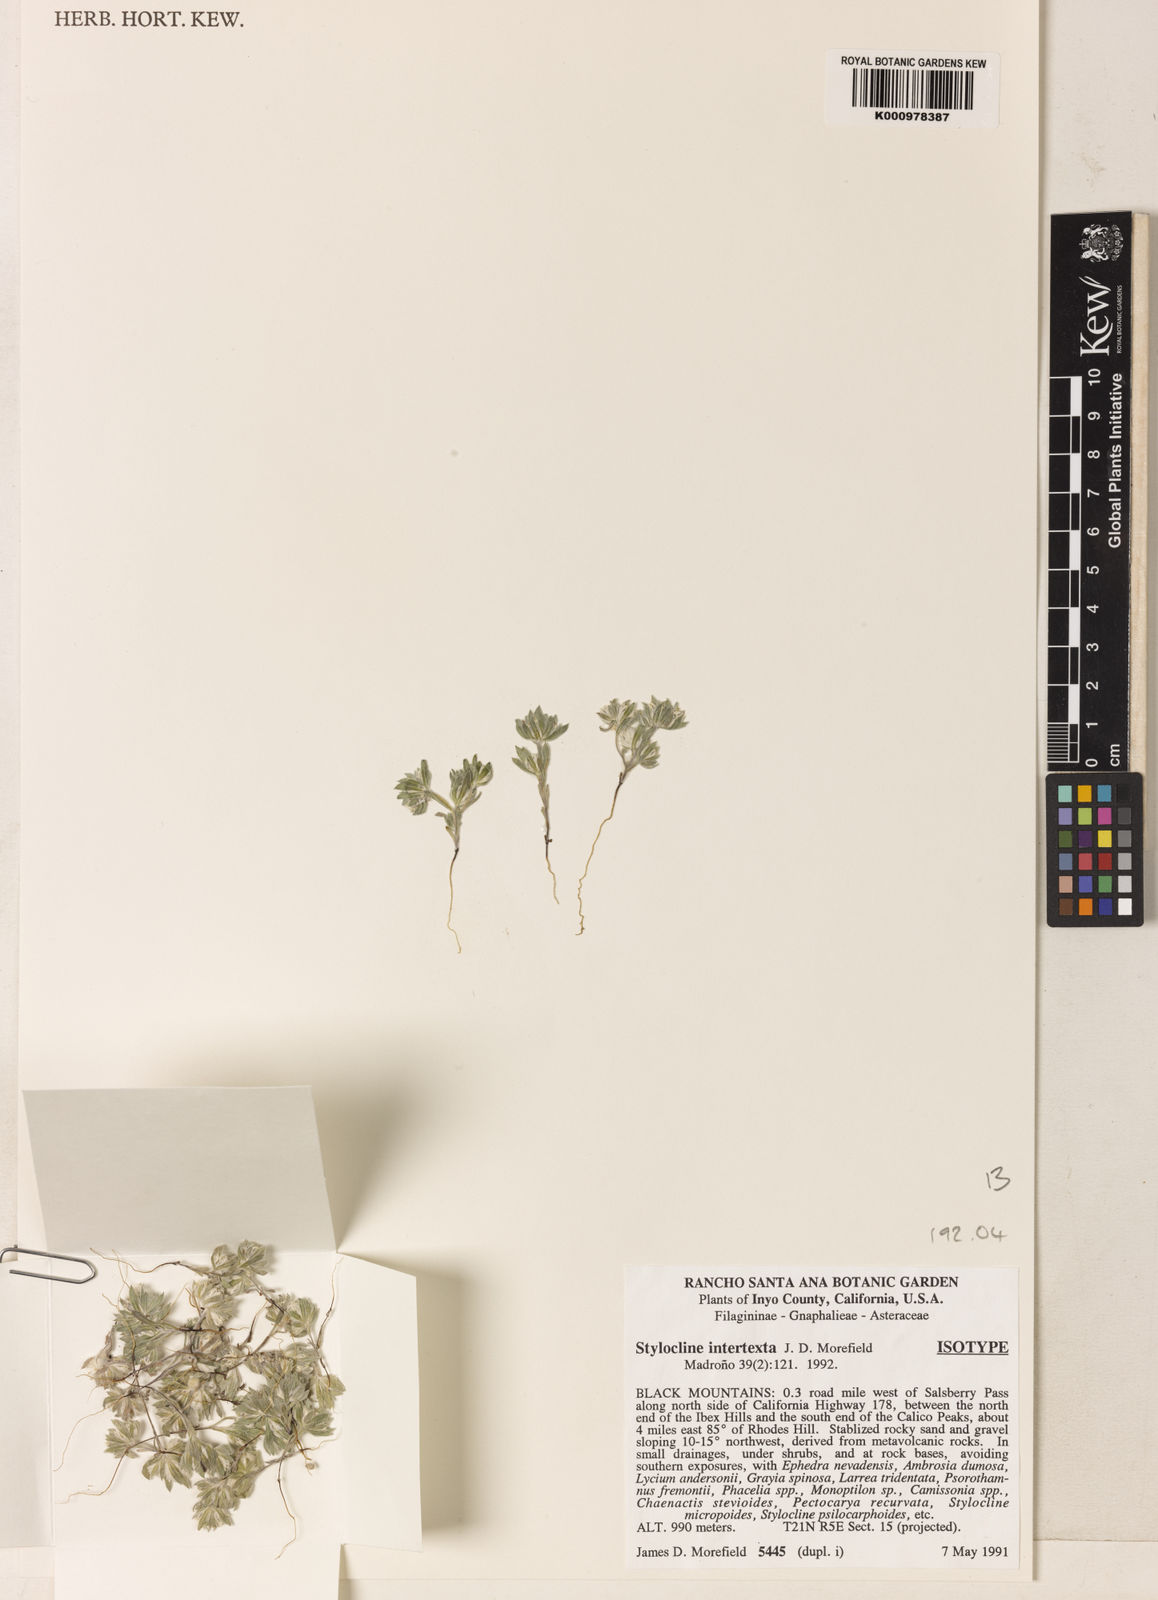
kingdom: Plantae
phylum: Tracheophyta
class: Magnoliopsida
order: Asterales
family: Asteraceae
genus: Stylocline
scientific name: Stylocline intertexta
